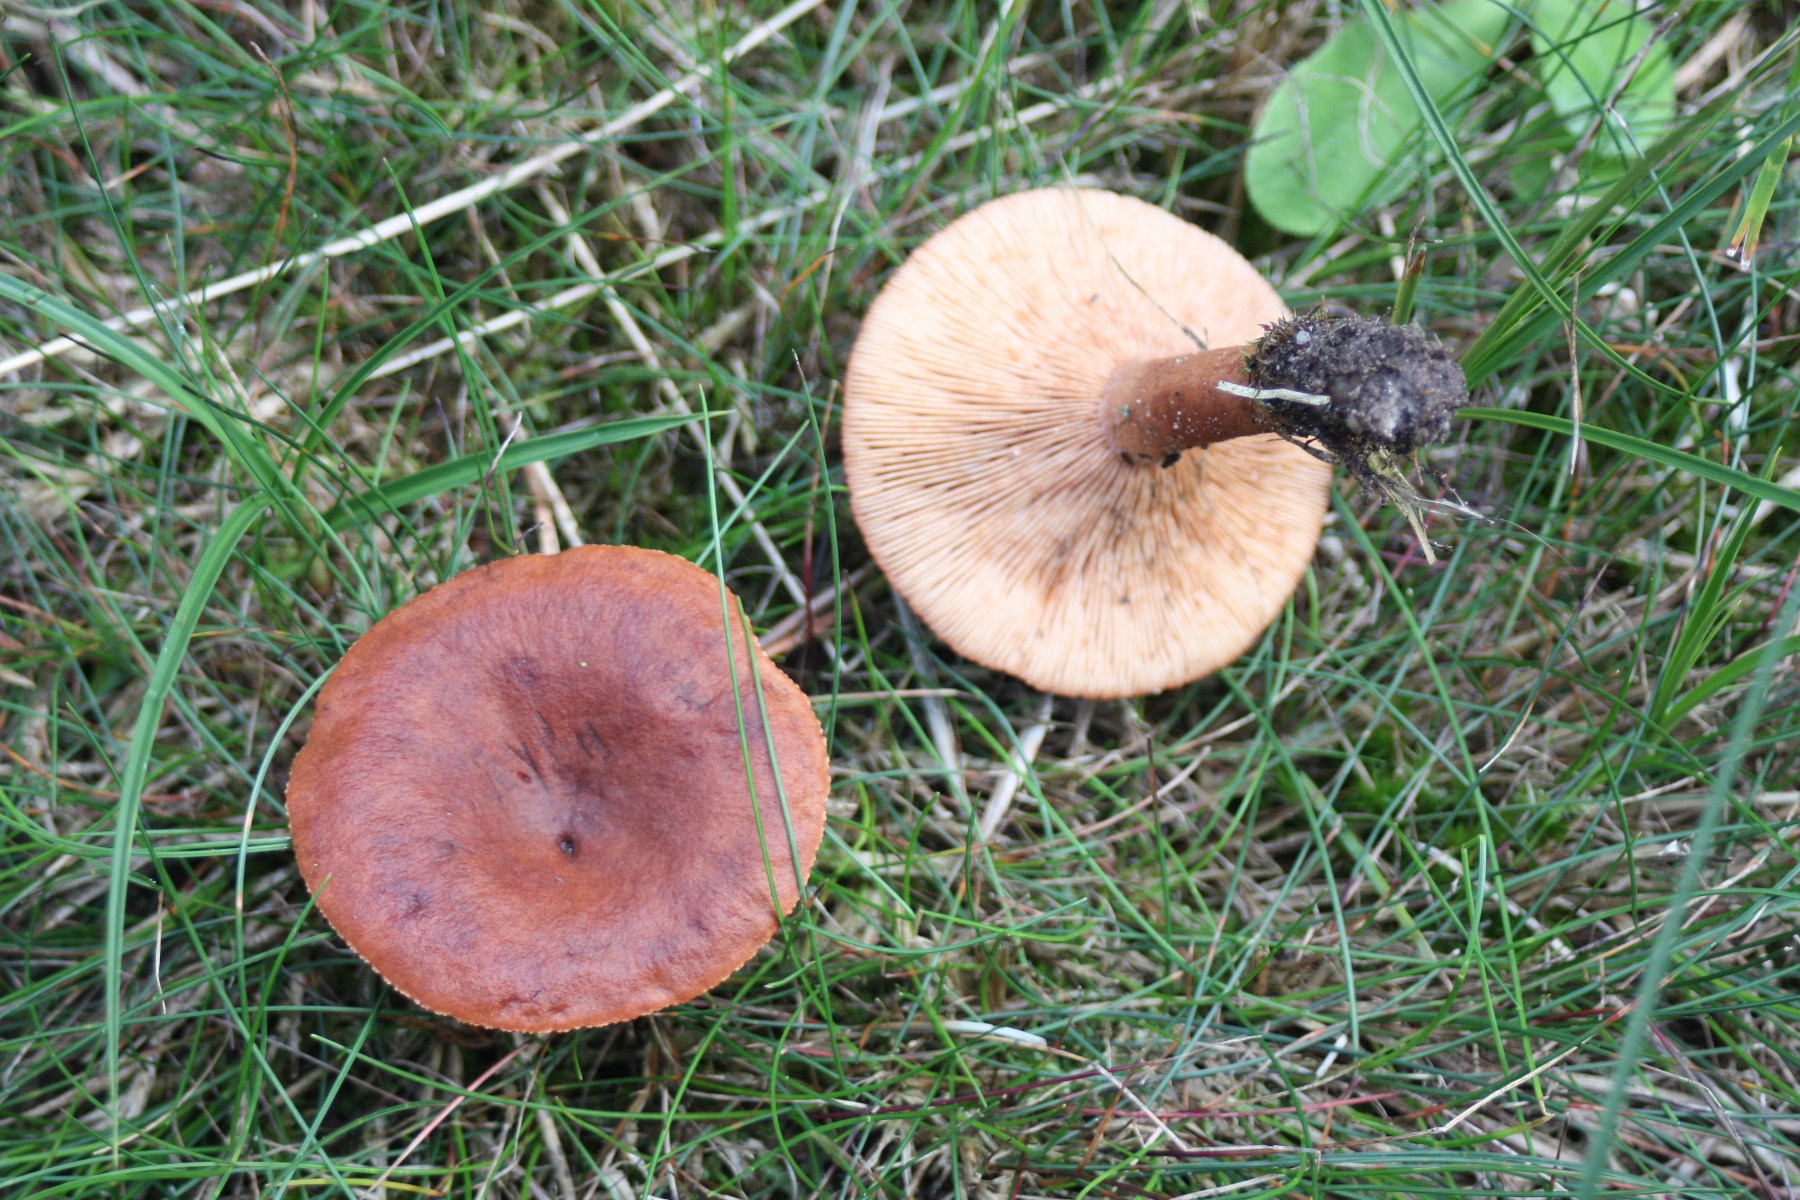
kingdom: Fungi
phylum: Basidiomycota
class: Agaricomycetes
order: Russulales
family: Russulaceae
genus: Lactarius
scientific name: Lactarius rufus
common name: rødbrun mælkehat
